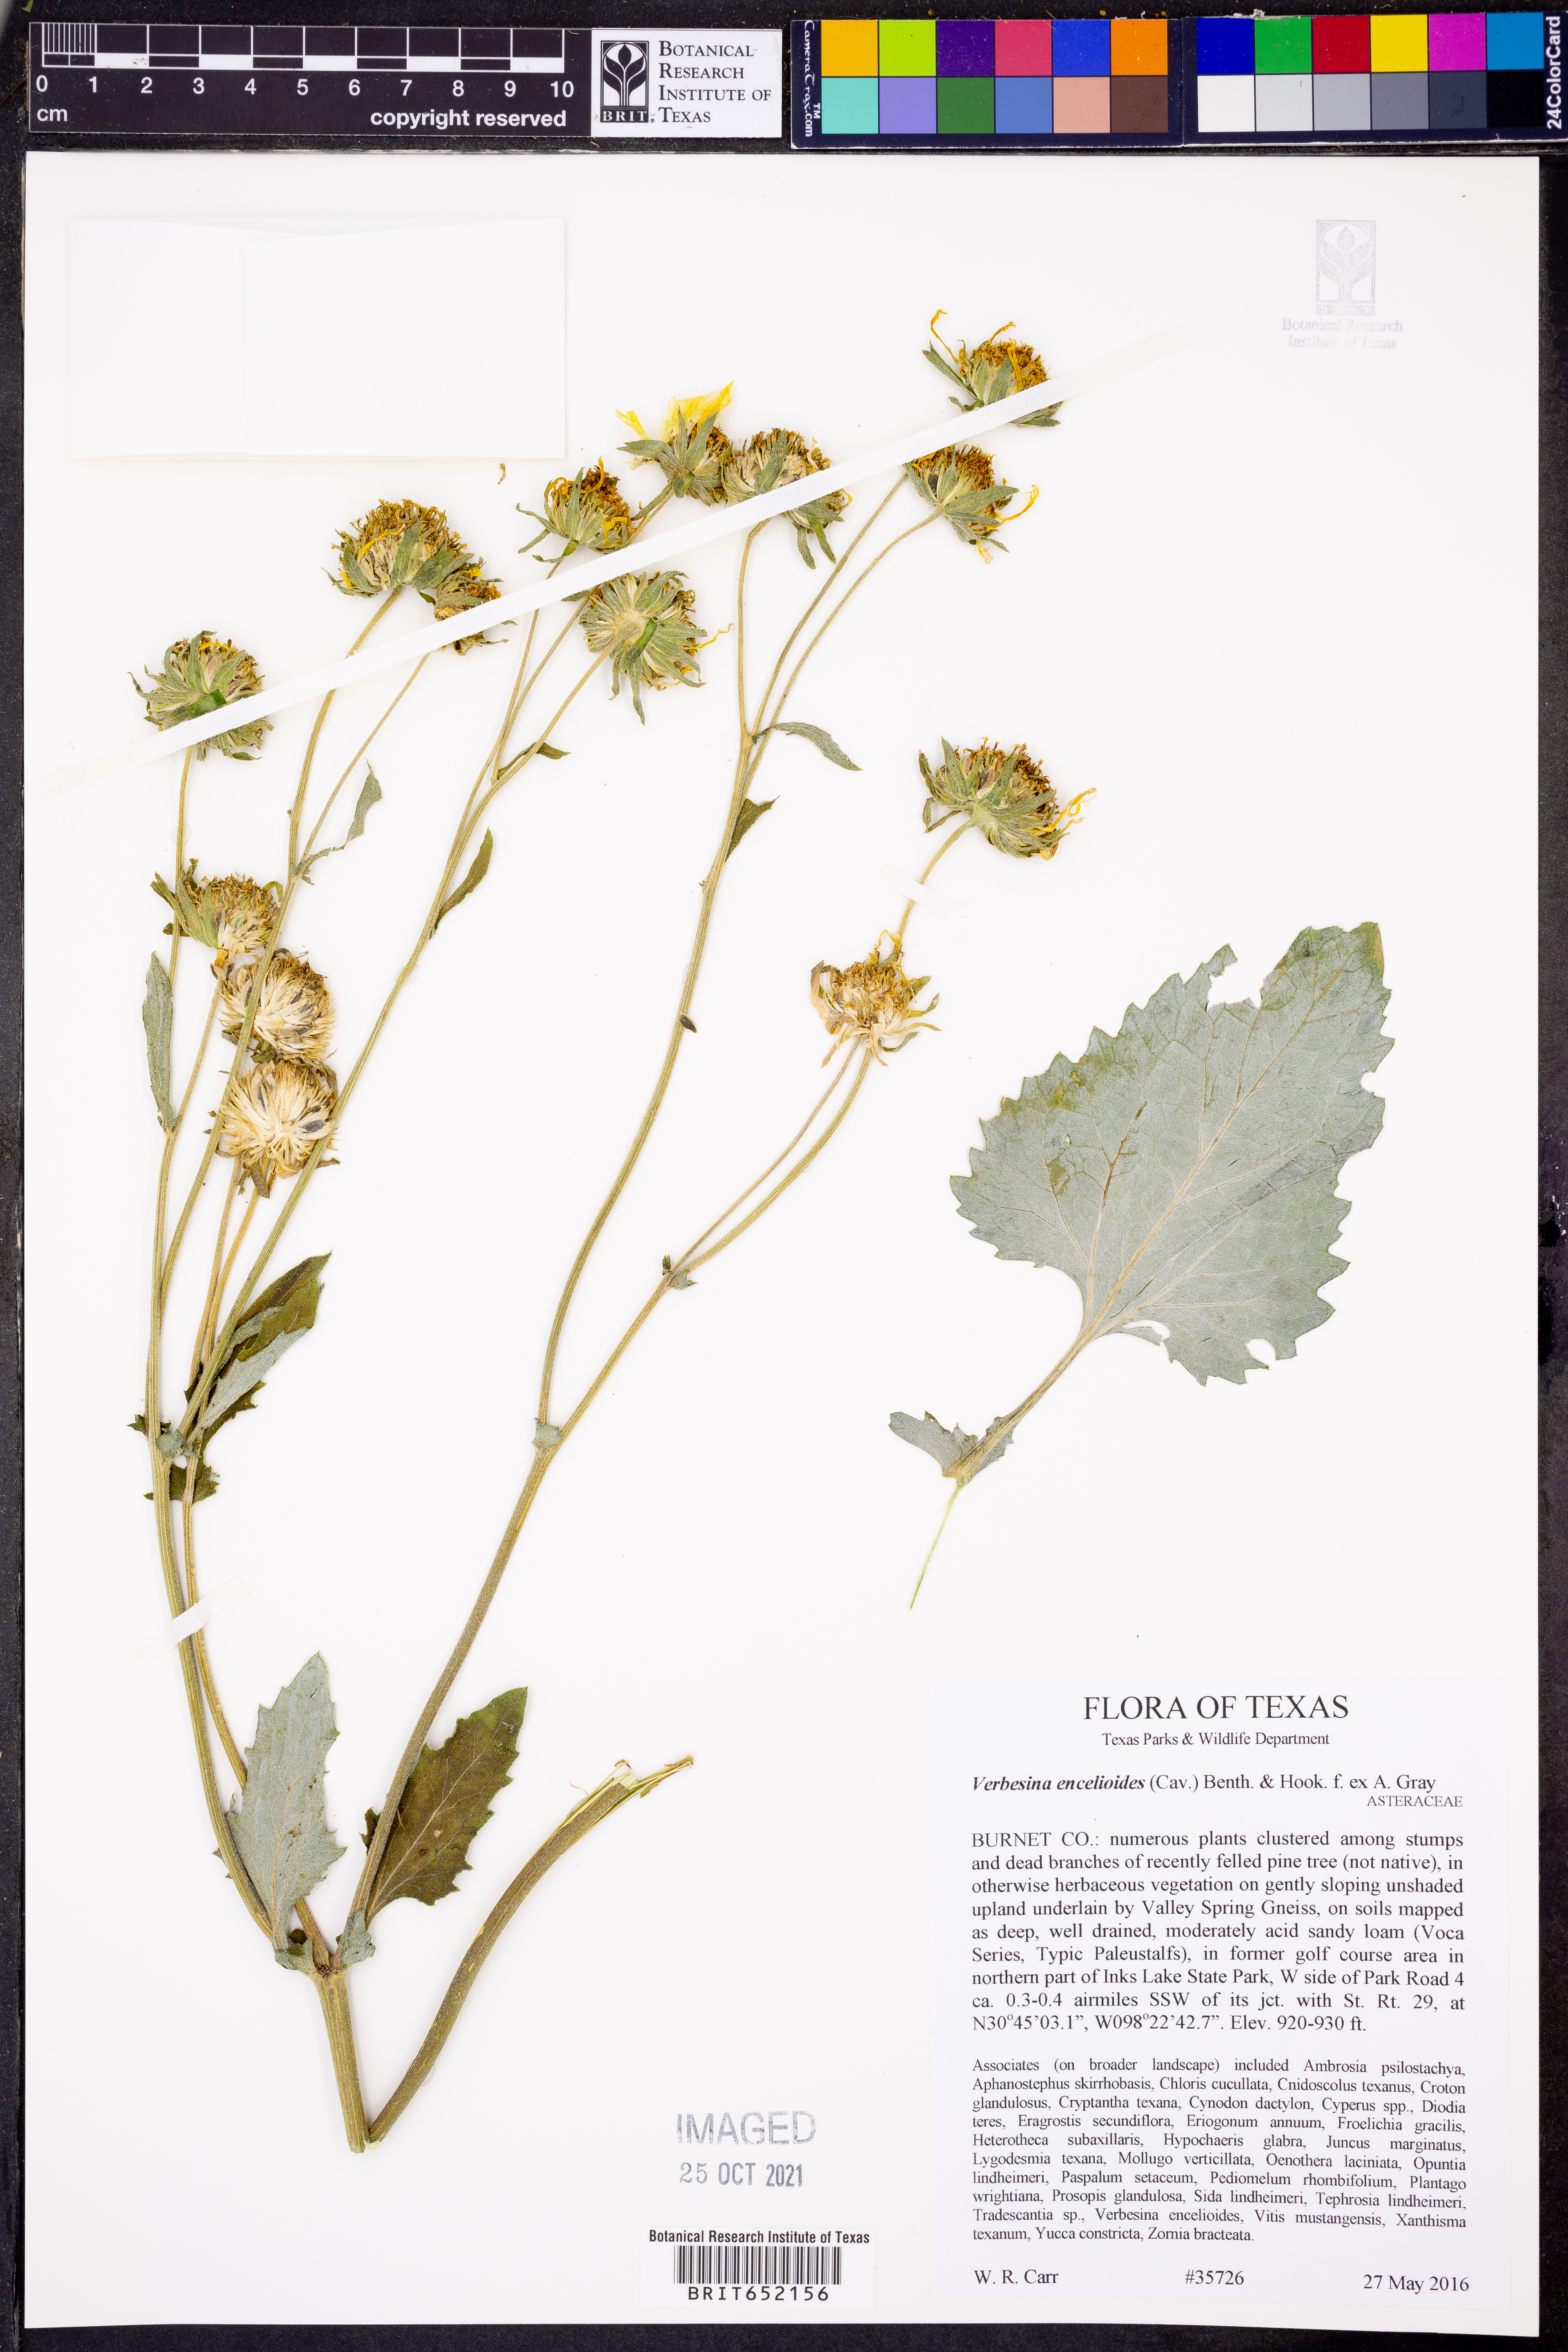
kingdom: Plantae
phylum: Tracheophyta
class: Magnoliopsida
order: Asterales
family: Asteraceae
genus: Verbesina
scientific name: Verbesina encelioides
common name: Golden crownbeard
